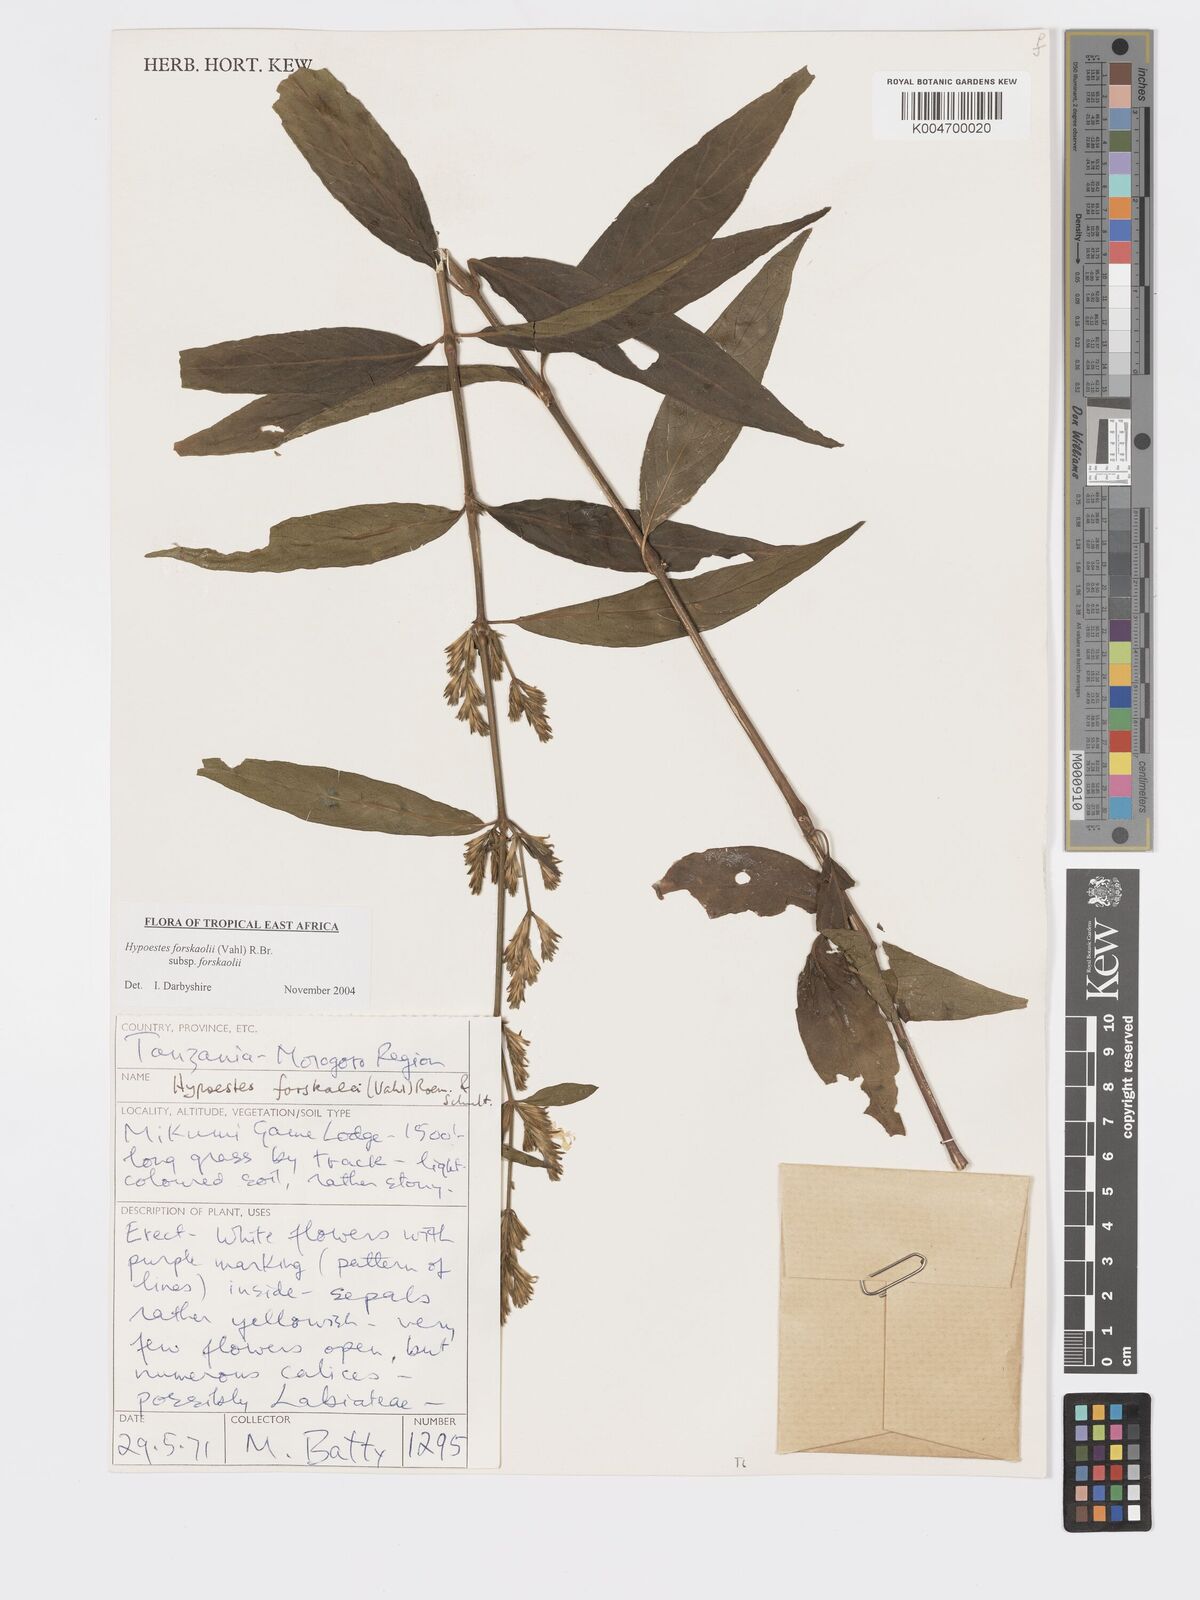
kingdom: Plantae
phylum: Tracheophyta
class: Magnoliopsida
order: Lamiales
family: Acanthaceae
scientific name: Acanthaceae
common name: Acanthaceae
